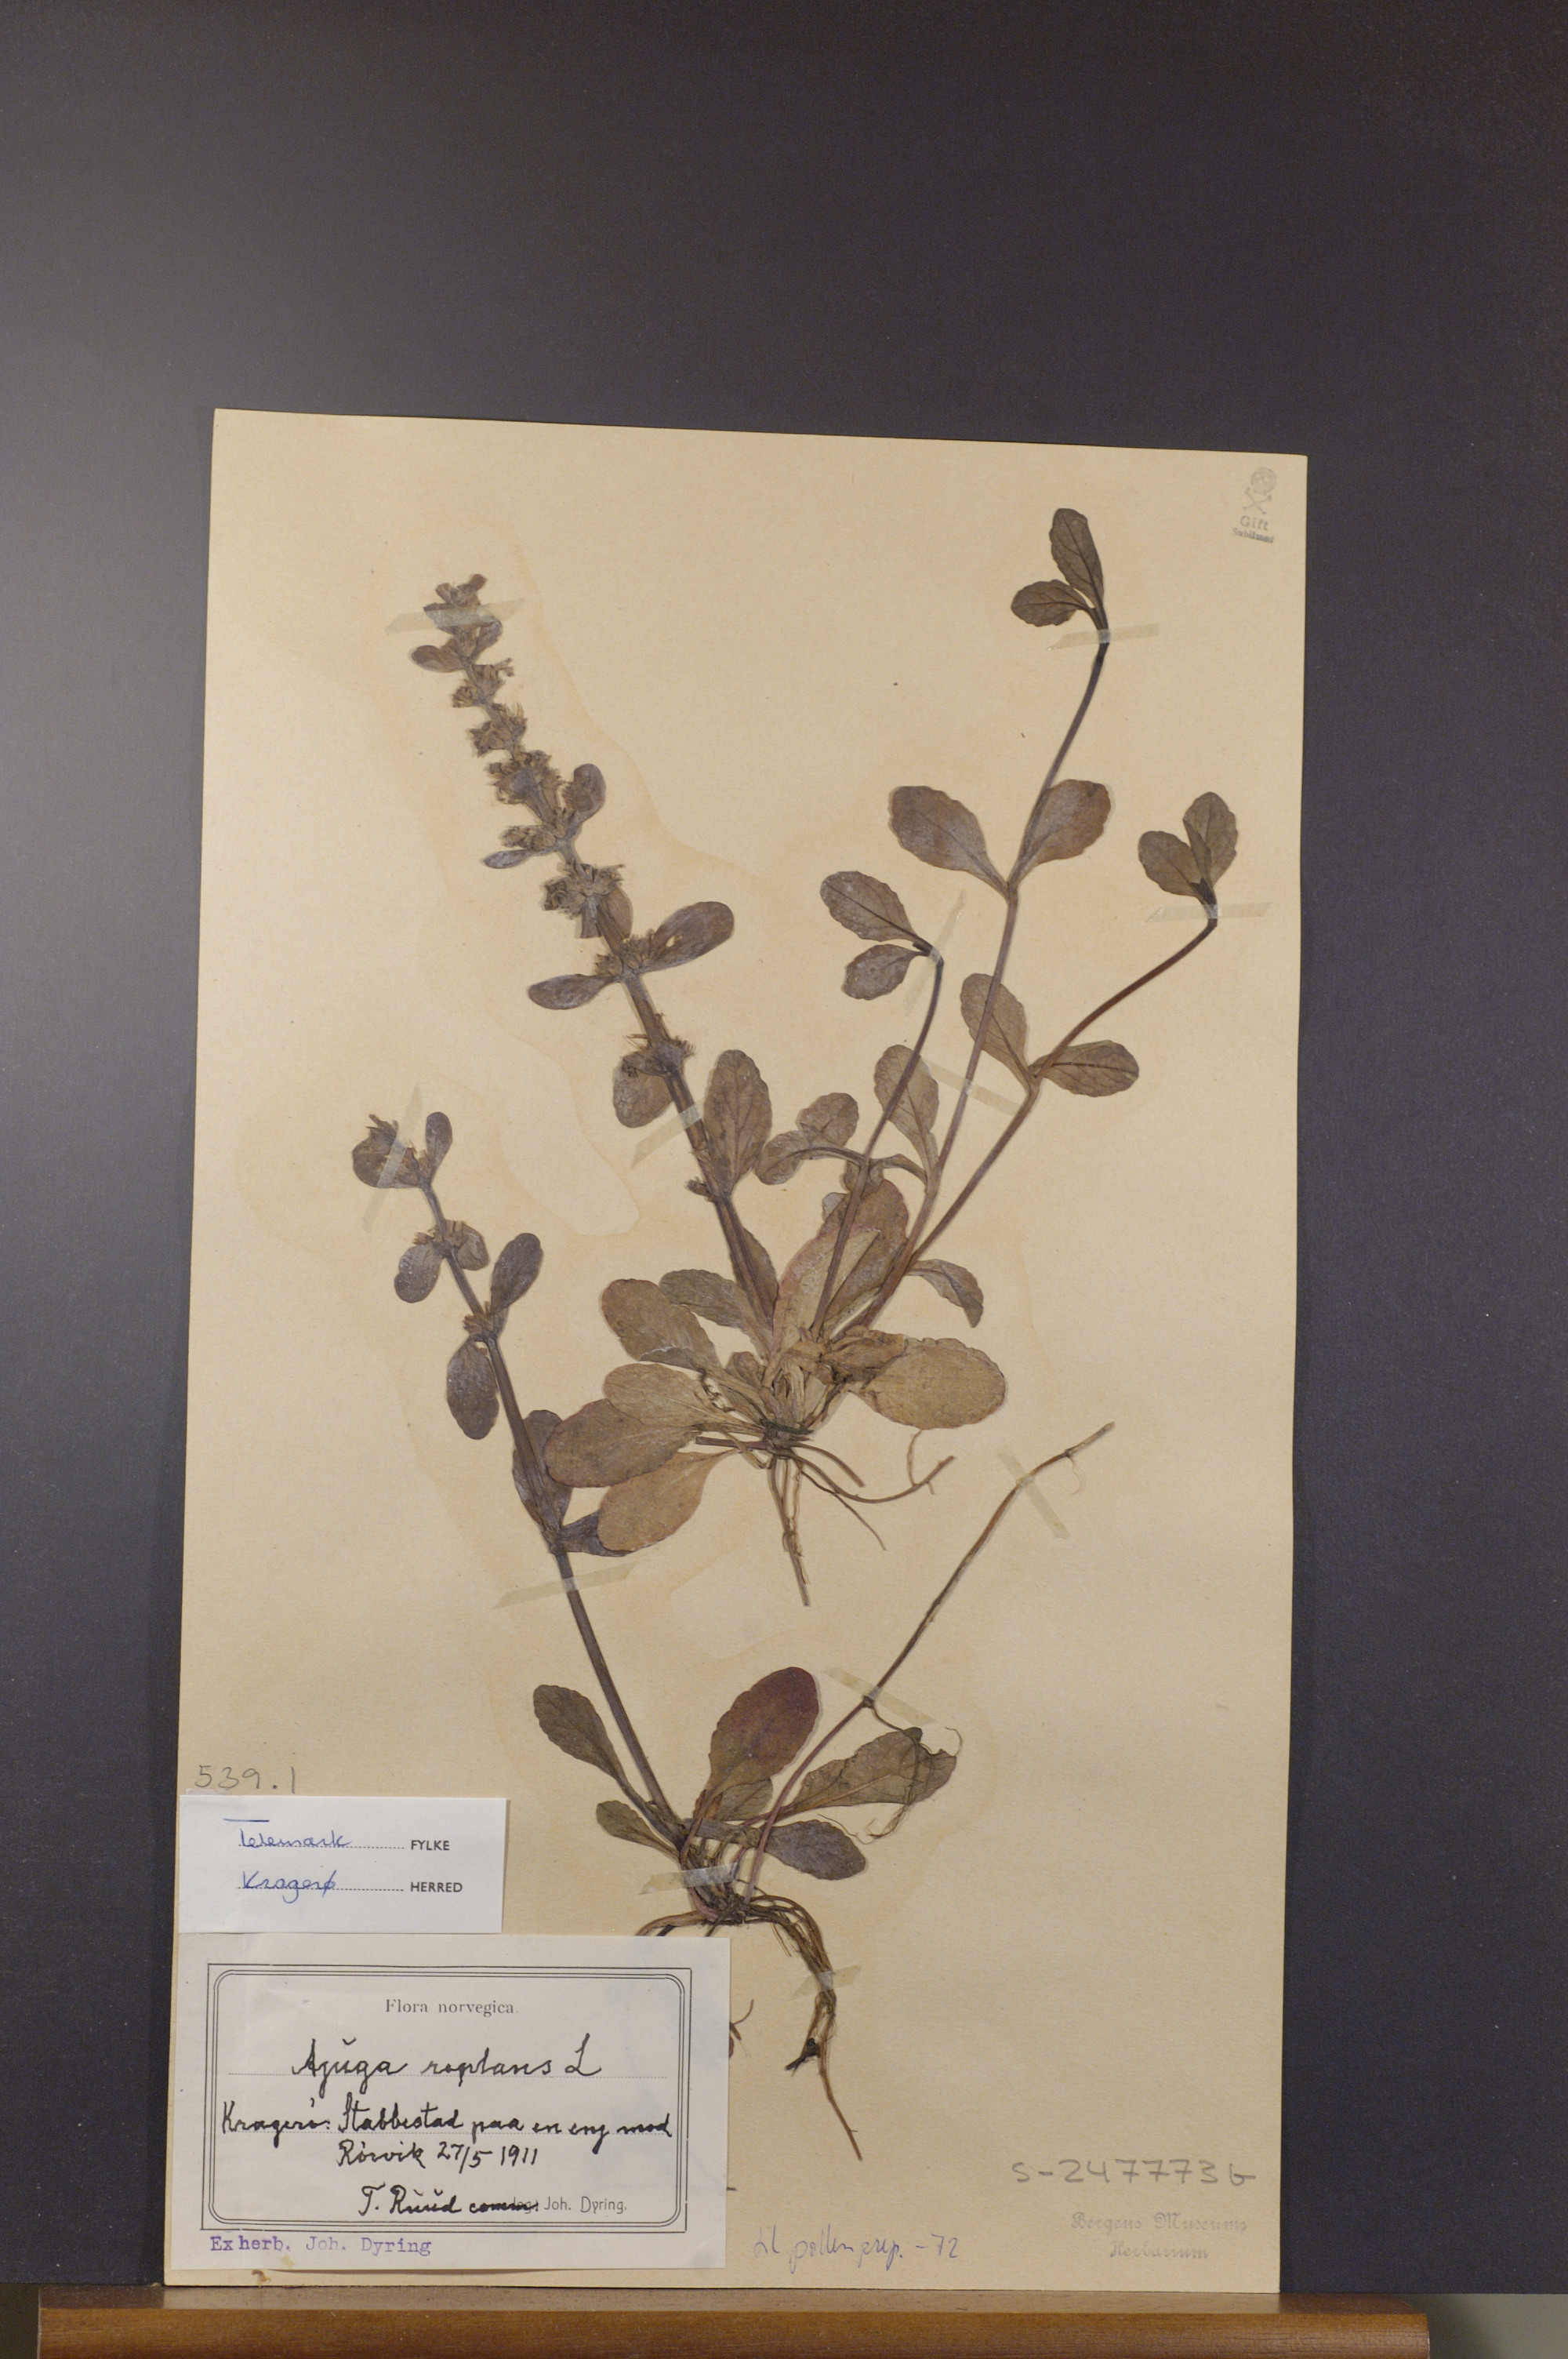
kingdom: Plantae
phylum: Tracheophyta
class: Magnoliopsida
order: Lamiales
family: Lamiaceae
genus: Ajuga
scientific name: Ajuga reptans
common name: Bugle
